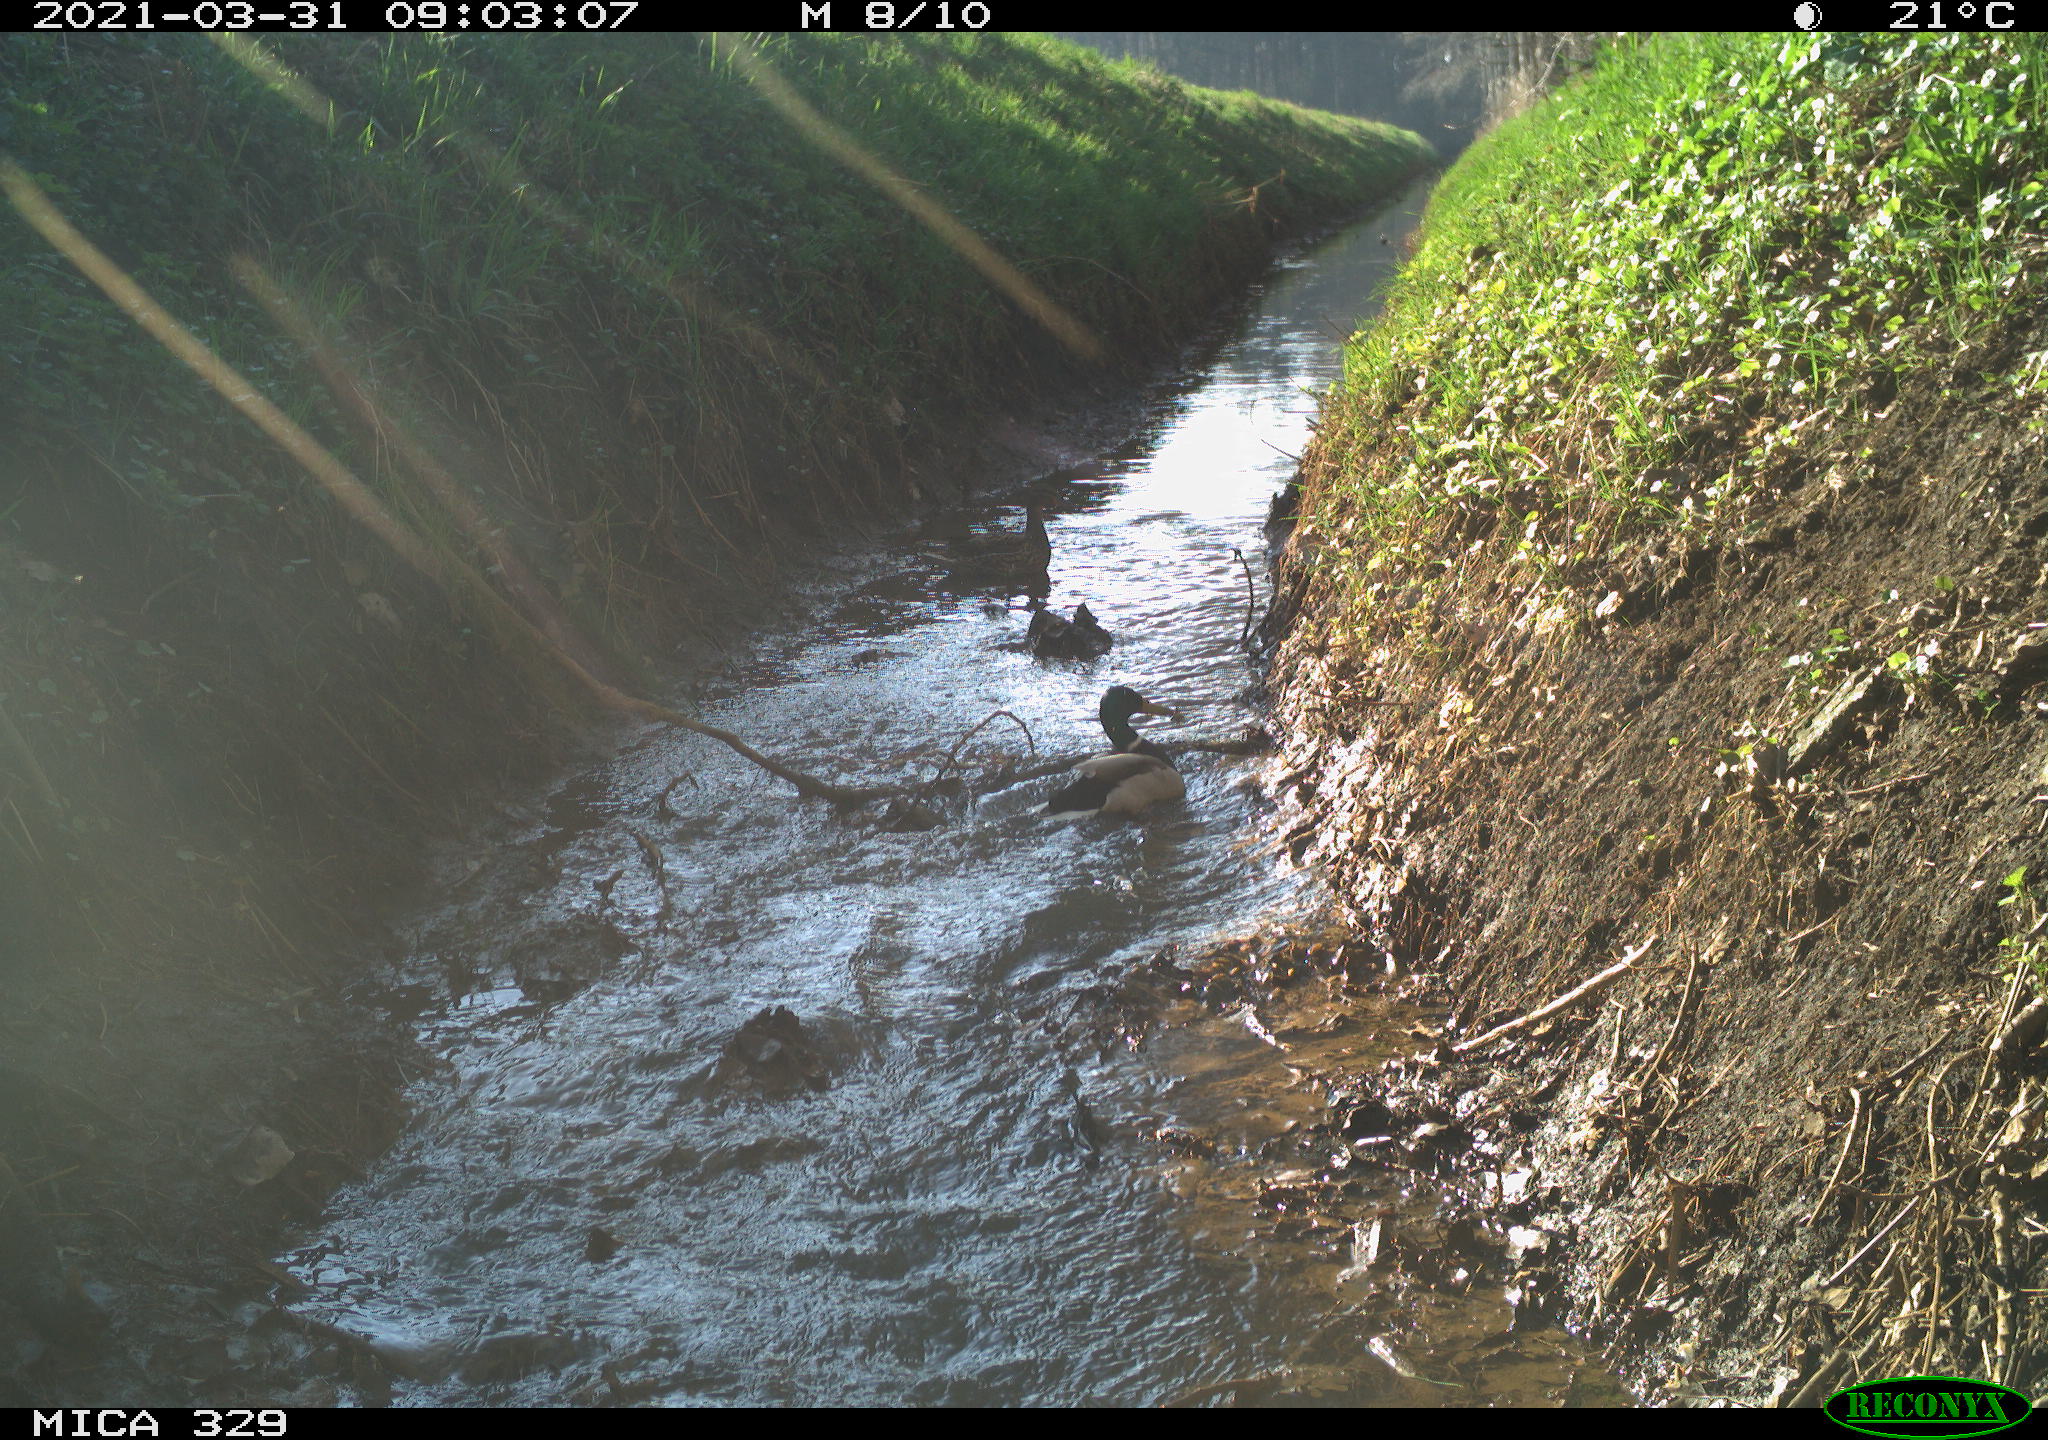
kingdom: Animalia
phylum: Chordata
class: Aves
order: Anseriformes
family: Anatidae
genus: Anas
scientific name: Anas platyrhynchos
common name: Mallard
